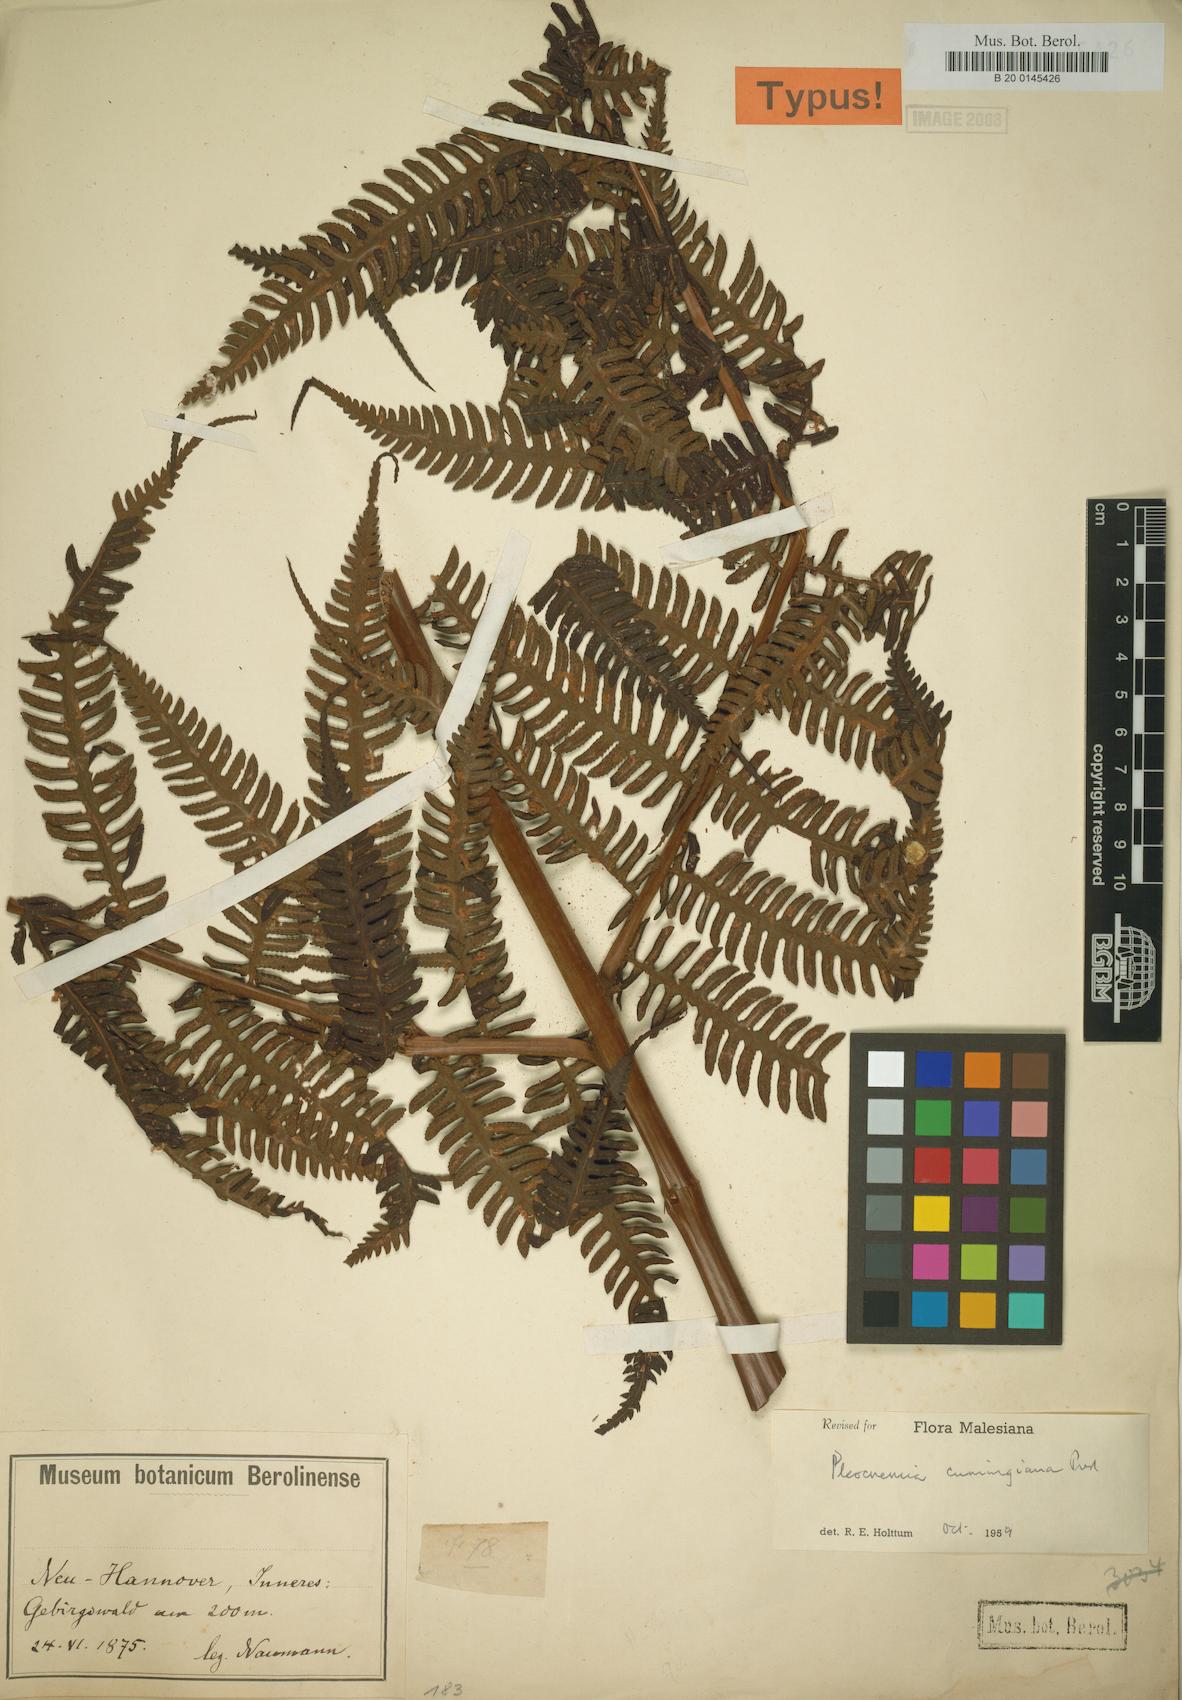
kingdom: Plantae
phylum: Tracheophyta
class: Polypodiopsida
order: Polypodiales
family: Dryopteridaceae
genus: Pleocnemia
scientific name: Pleocnemia cumingiana
